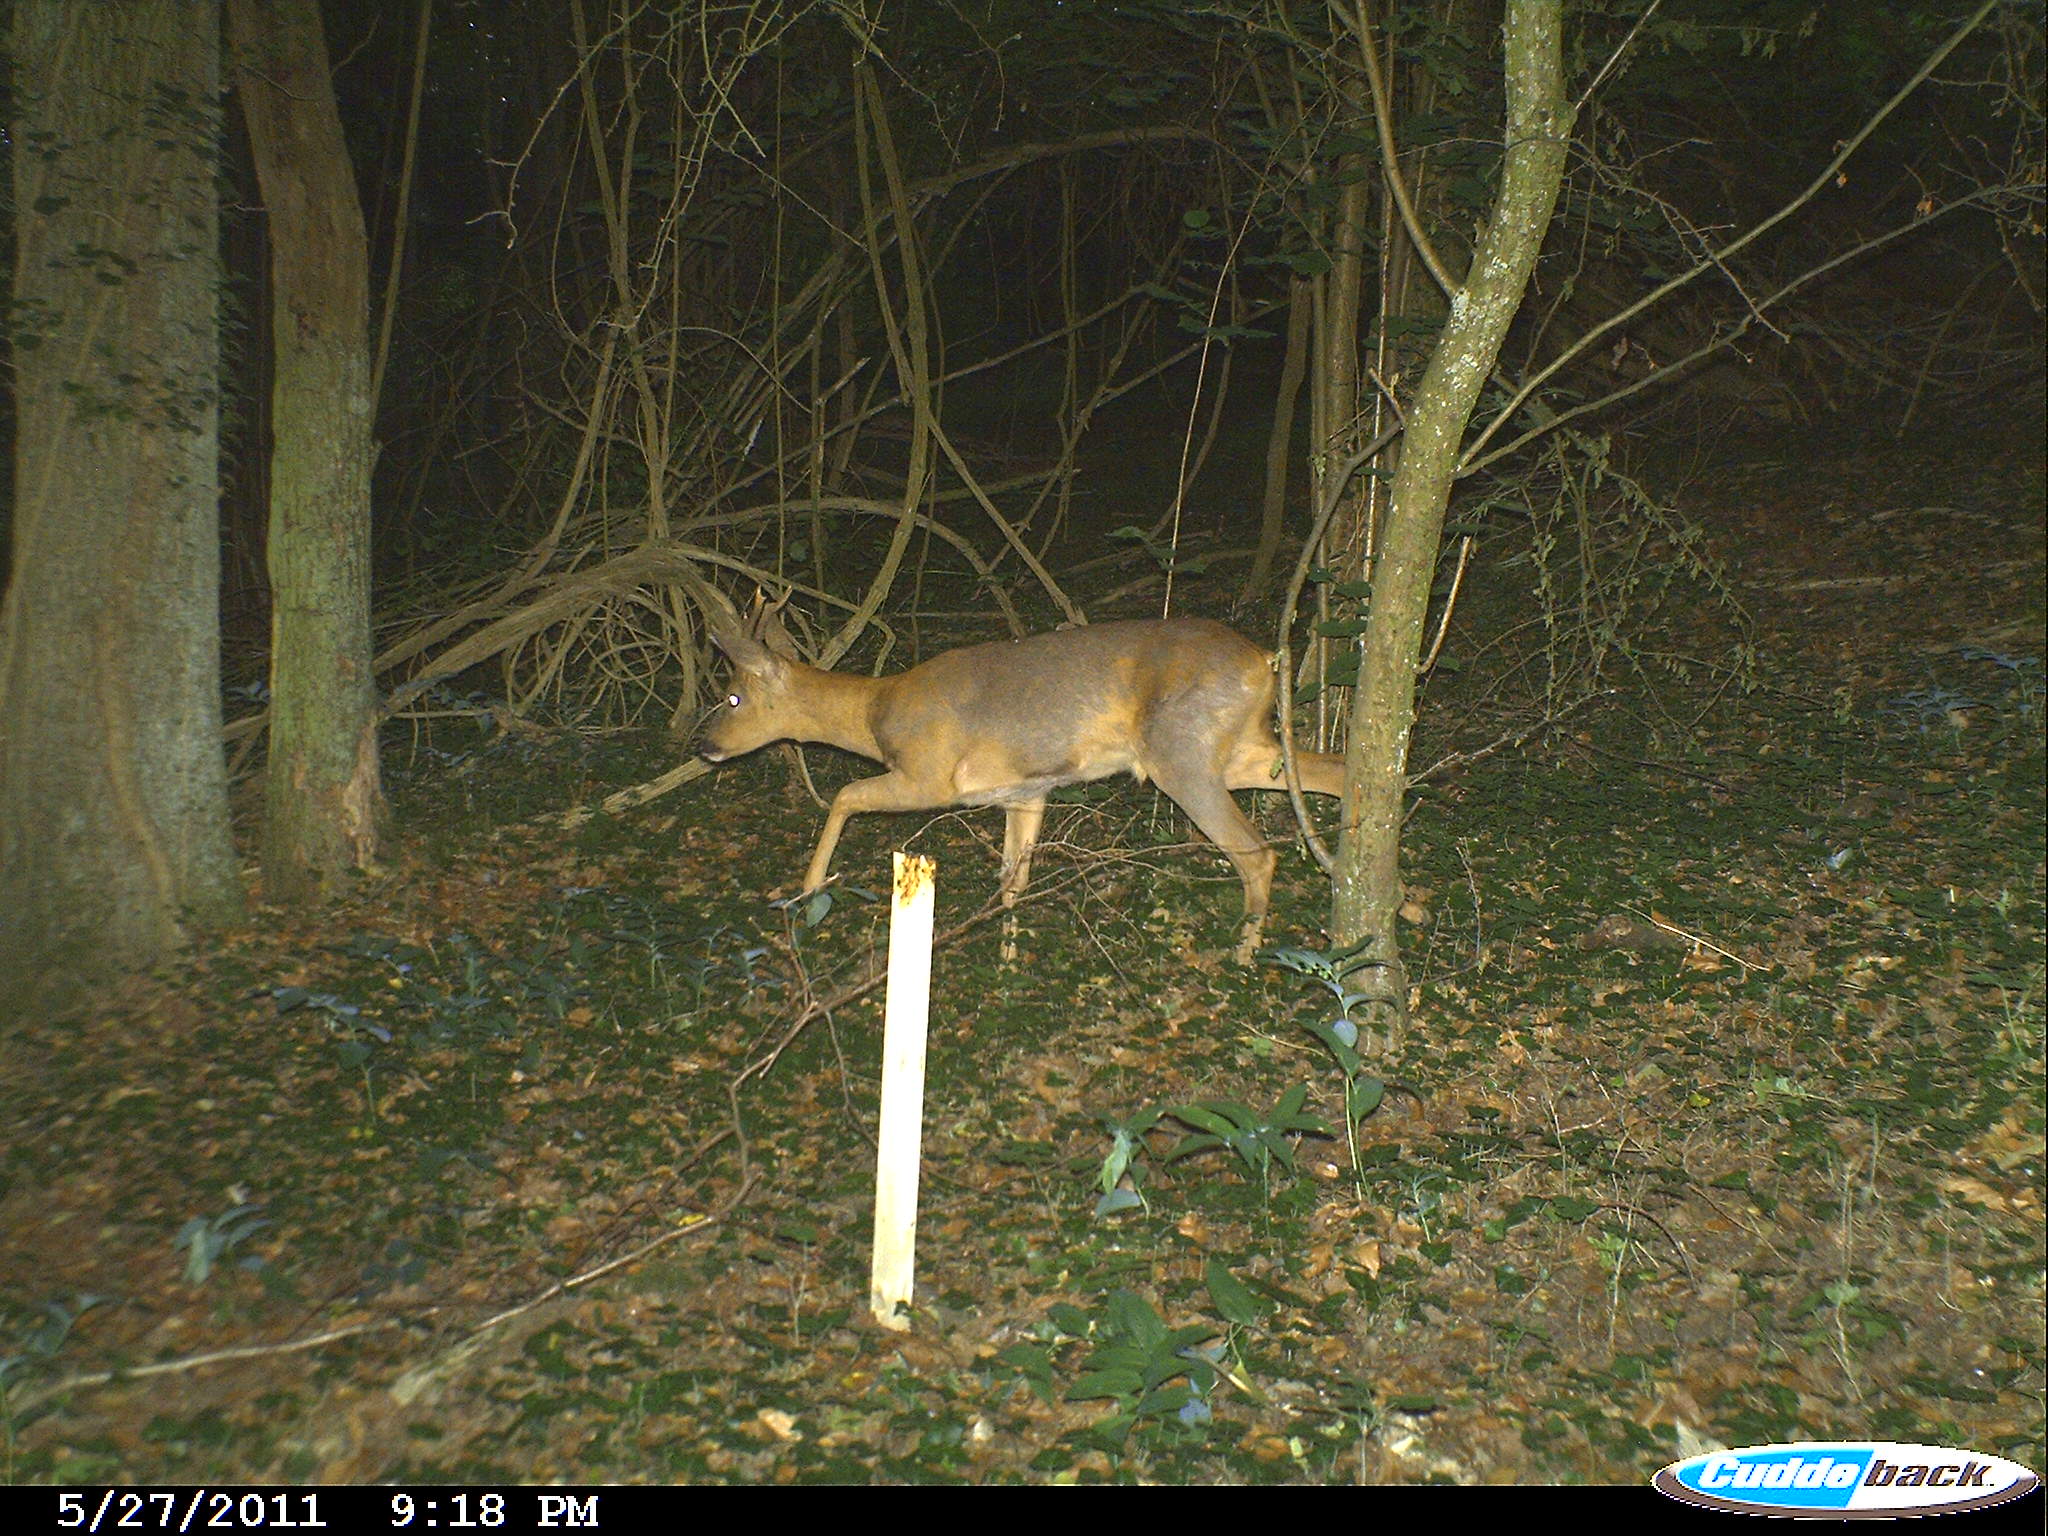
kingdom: Animalia
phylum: Chordata
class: Mammalia
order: Artiodactyla
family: Cervidae
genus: Capreolus
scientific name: Capreolus capreolus
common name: Western roe deer
